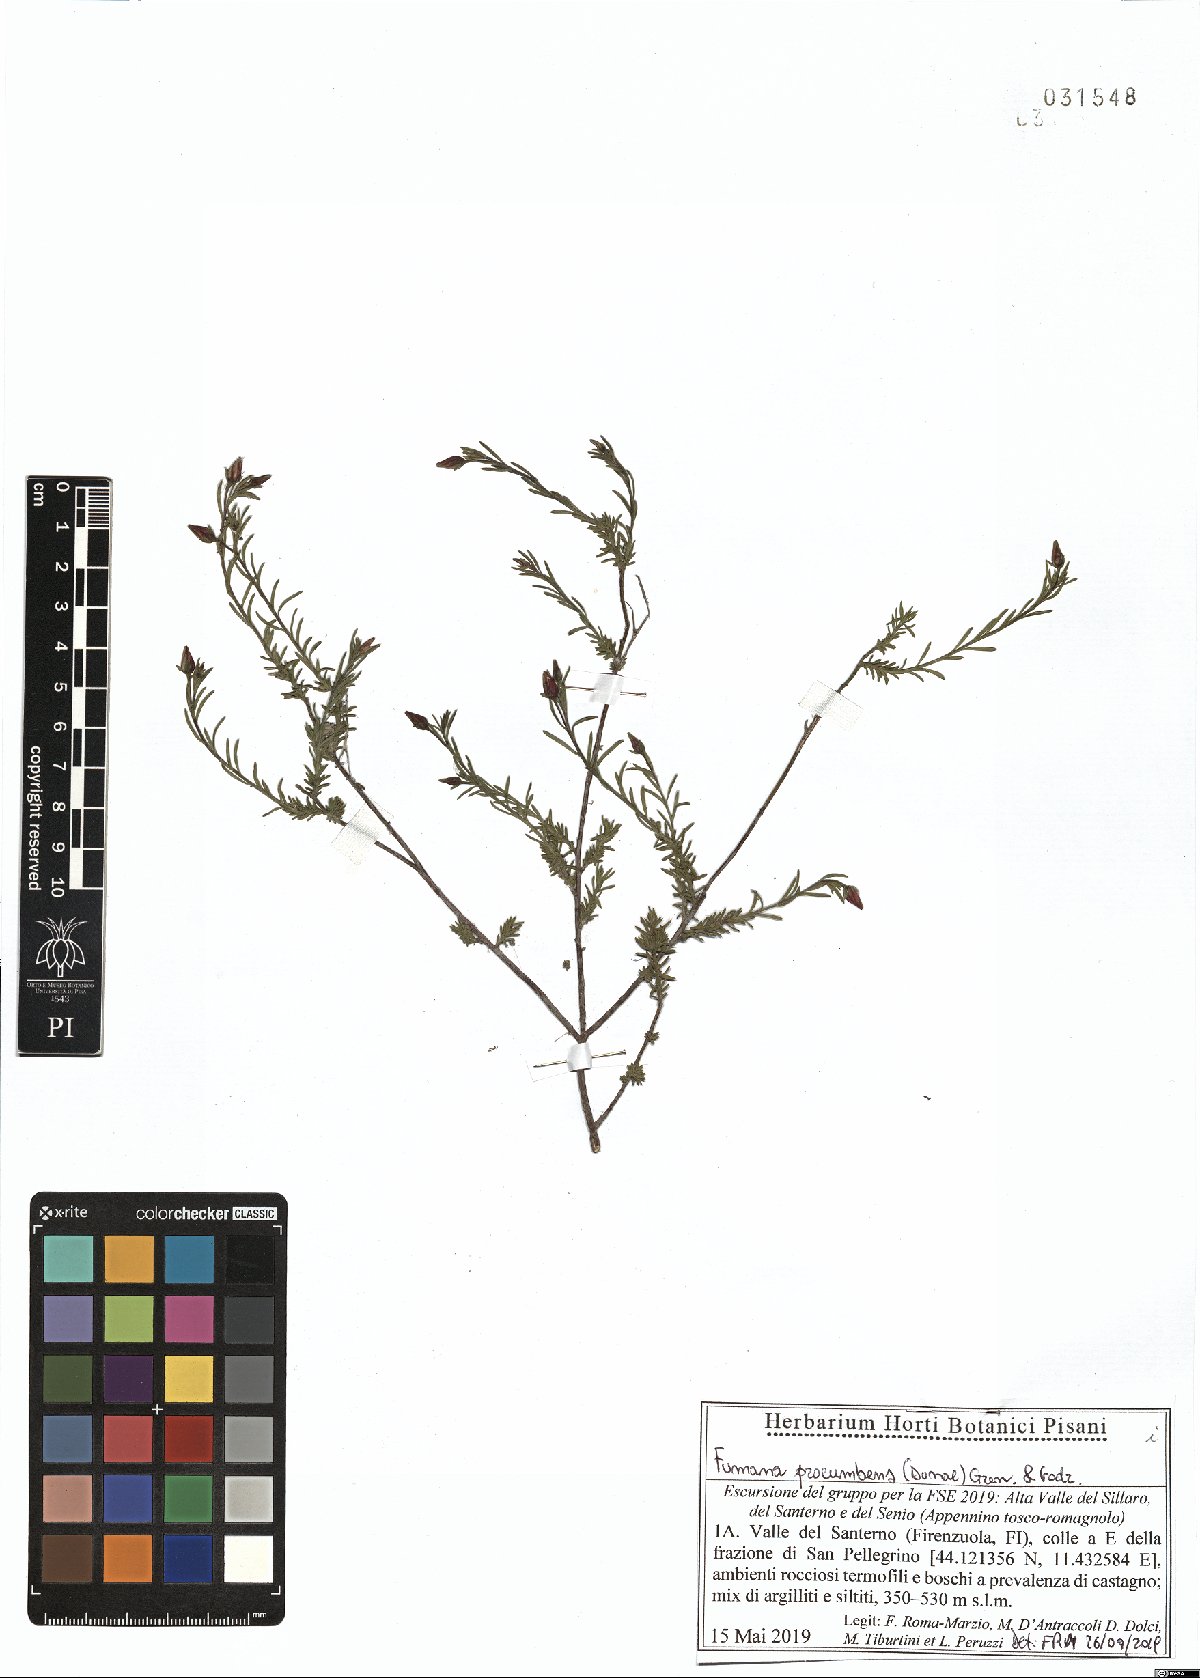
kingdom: Plantae
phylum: Tracheophyta
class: Magnoliopsida
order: Malvales
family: Cistaceae
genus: Fumana
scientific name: Fumana procumbens
